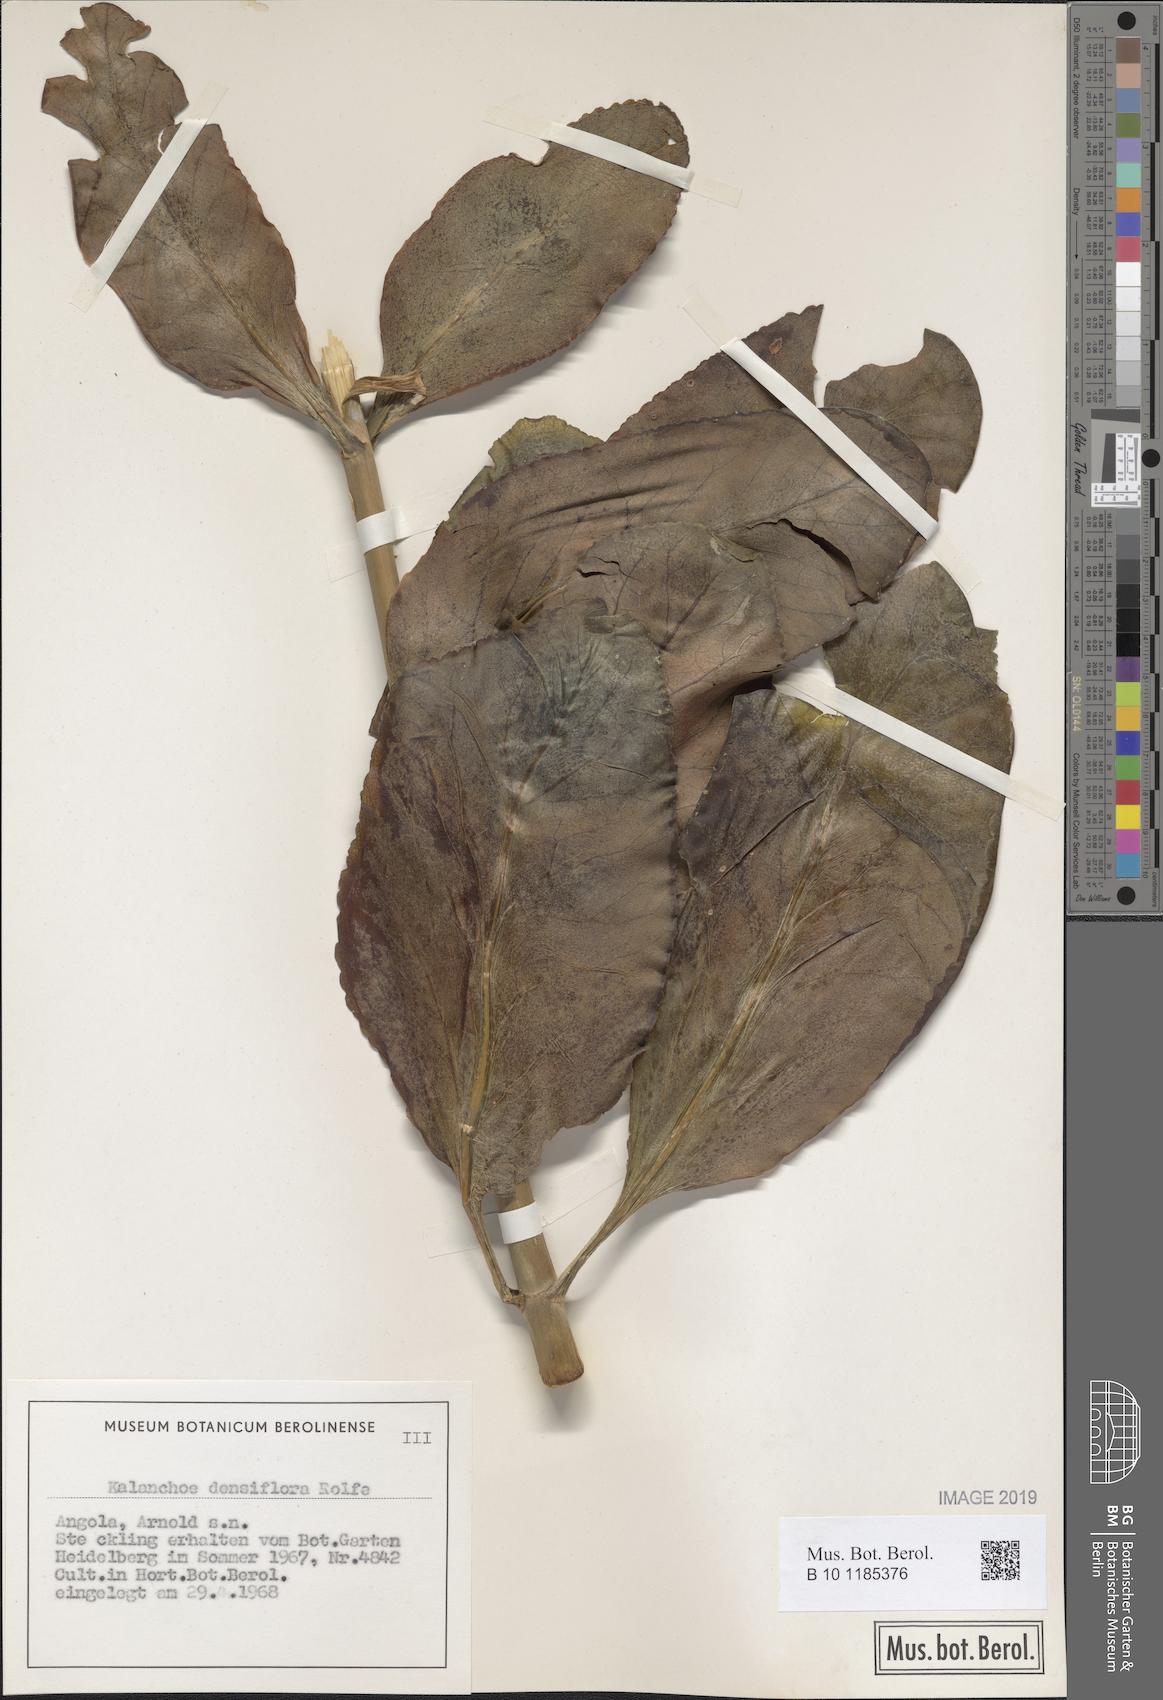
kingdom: Plantae
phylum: Tracheophyta
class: Magnoliopsida
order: Saxifragales
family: Crassulaceae
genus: Kalanchoe
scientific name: Kalanchoe densiflora
